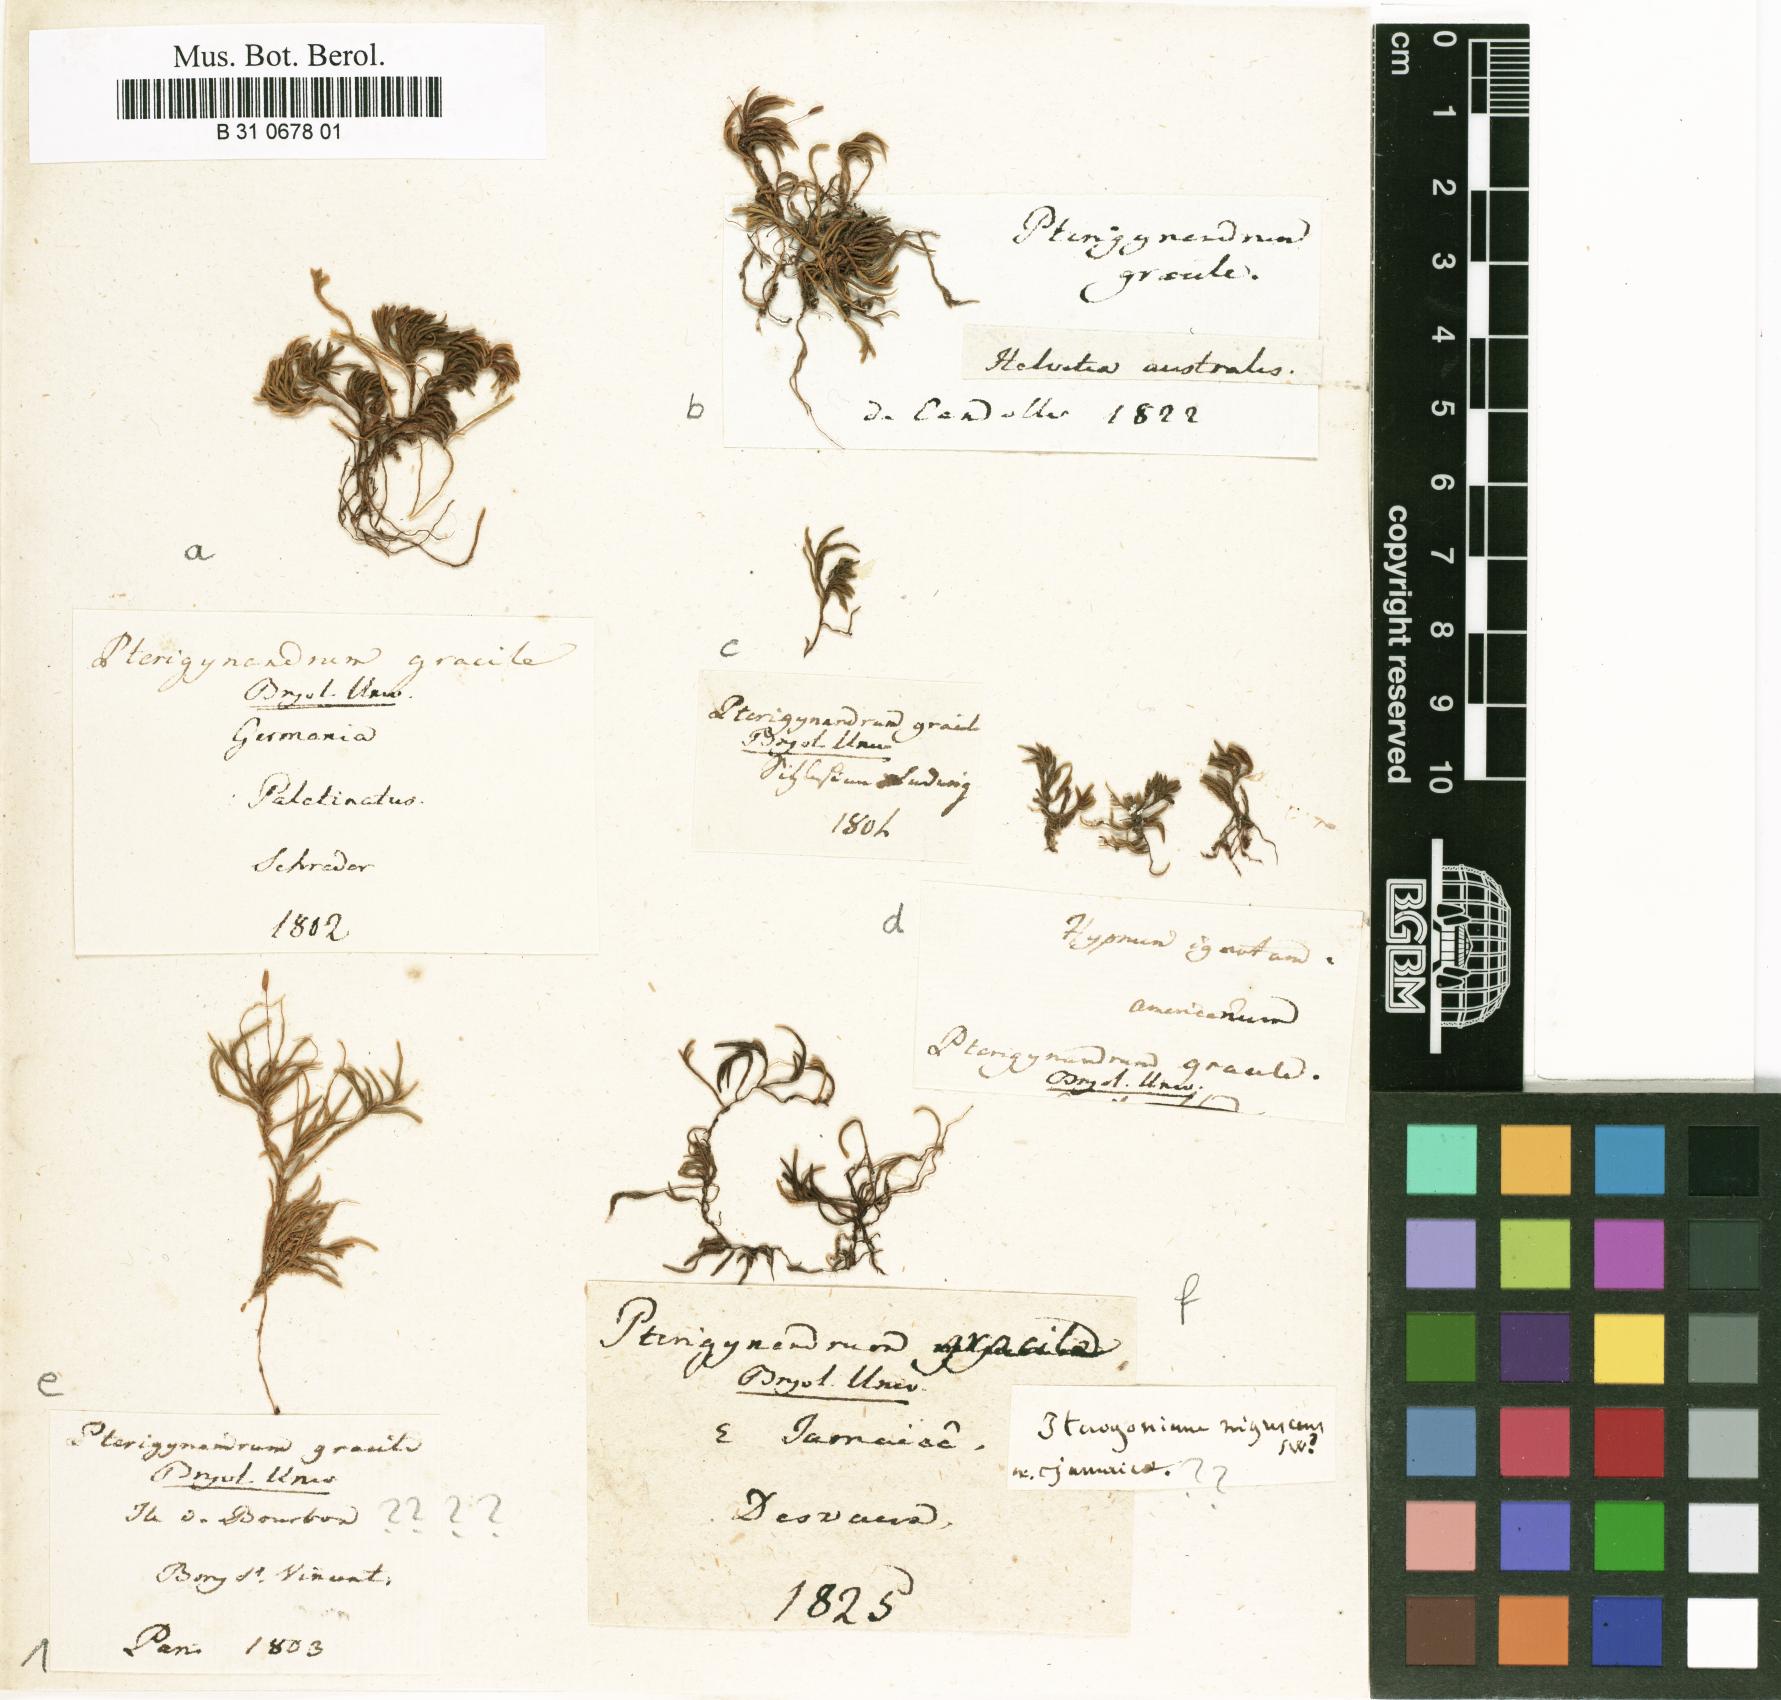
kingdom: Plantae
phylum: Bryophyta
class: Bryopsida
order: Hypnales
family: Lembophyllaceae
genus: Nogopterium
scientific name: Nogopterium gracile
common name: Bird's-foot wing-moss
